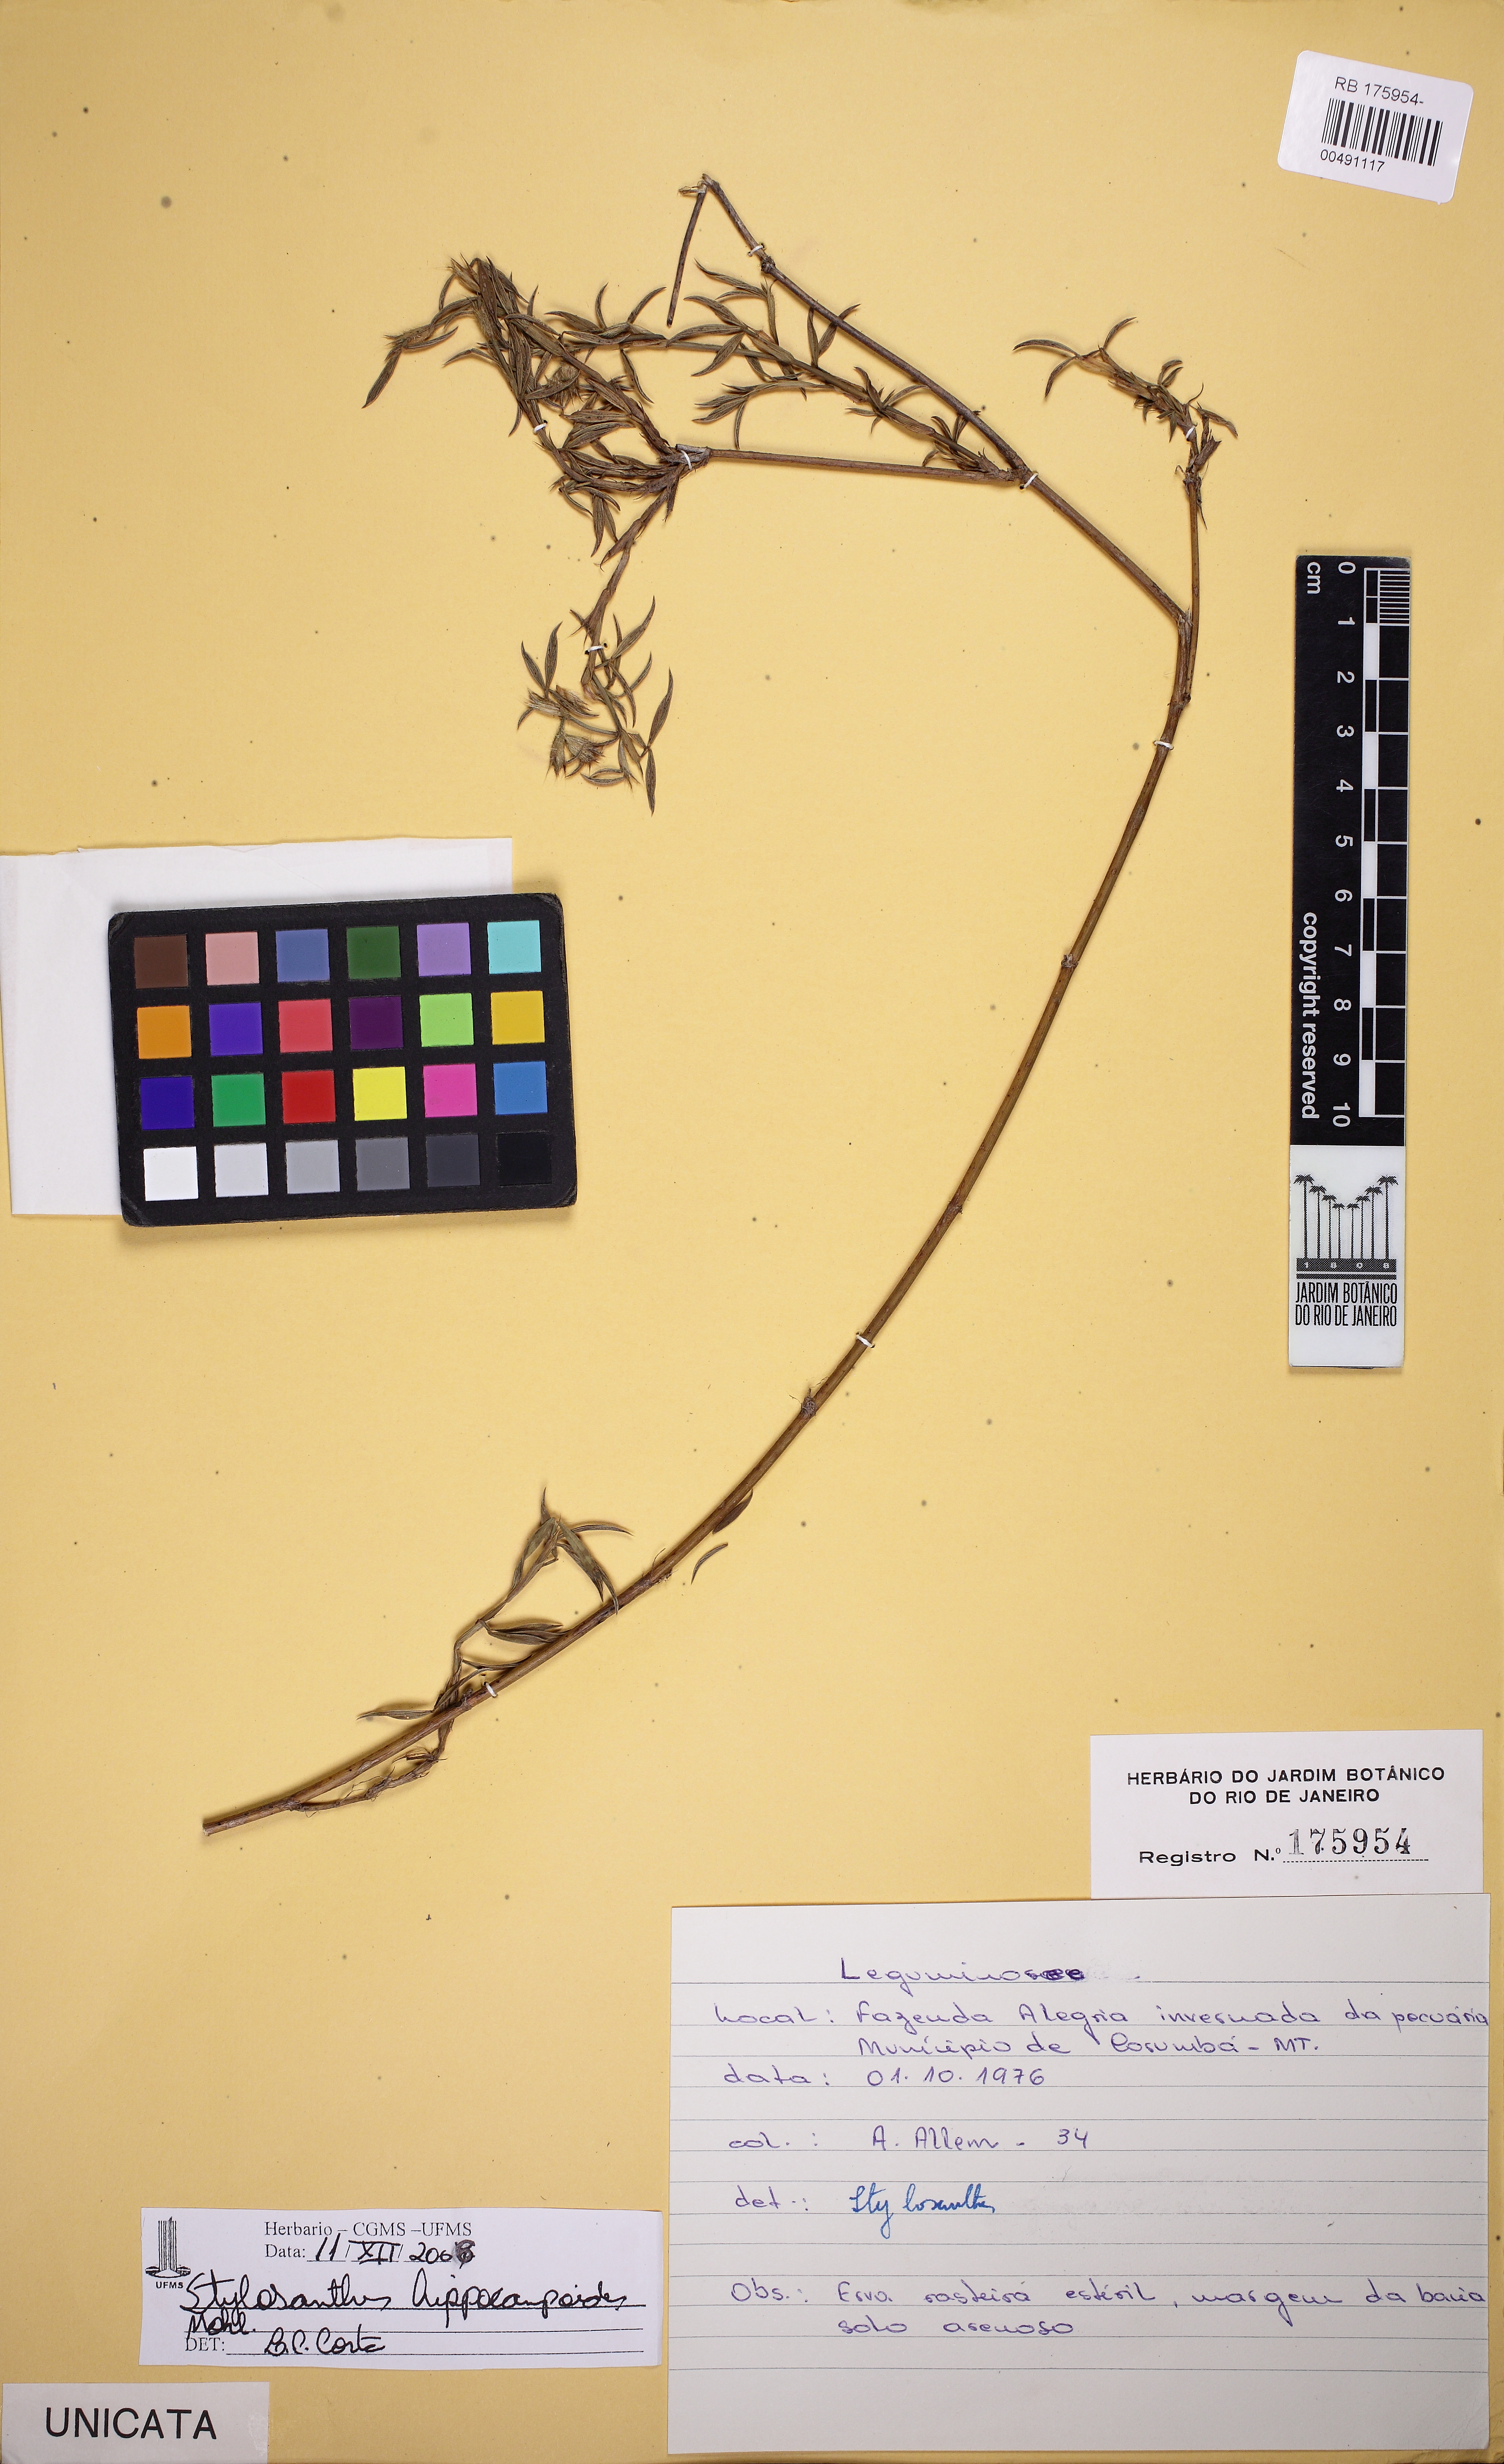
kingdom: Plantae
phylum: Tracheophyta
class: Magnoliopsida
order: Fabales
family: Fabaceae
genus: Stylosanthes
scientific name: Stylosanthes hippocampoides
